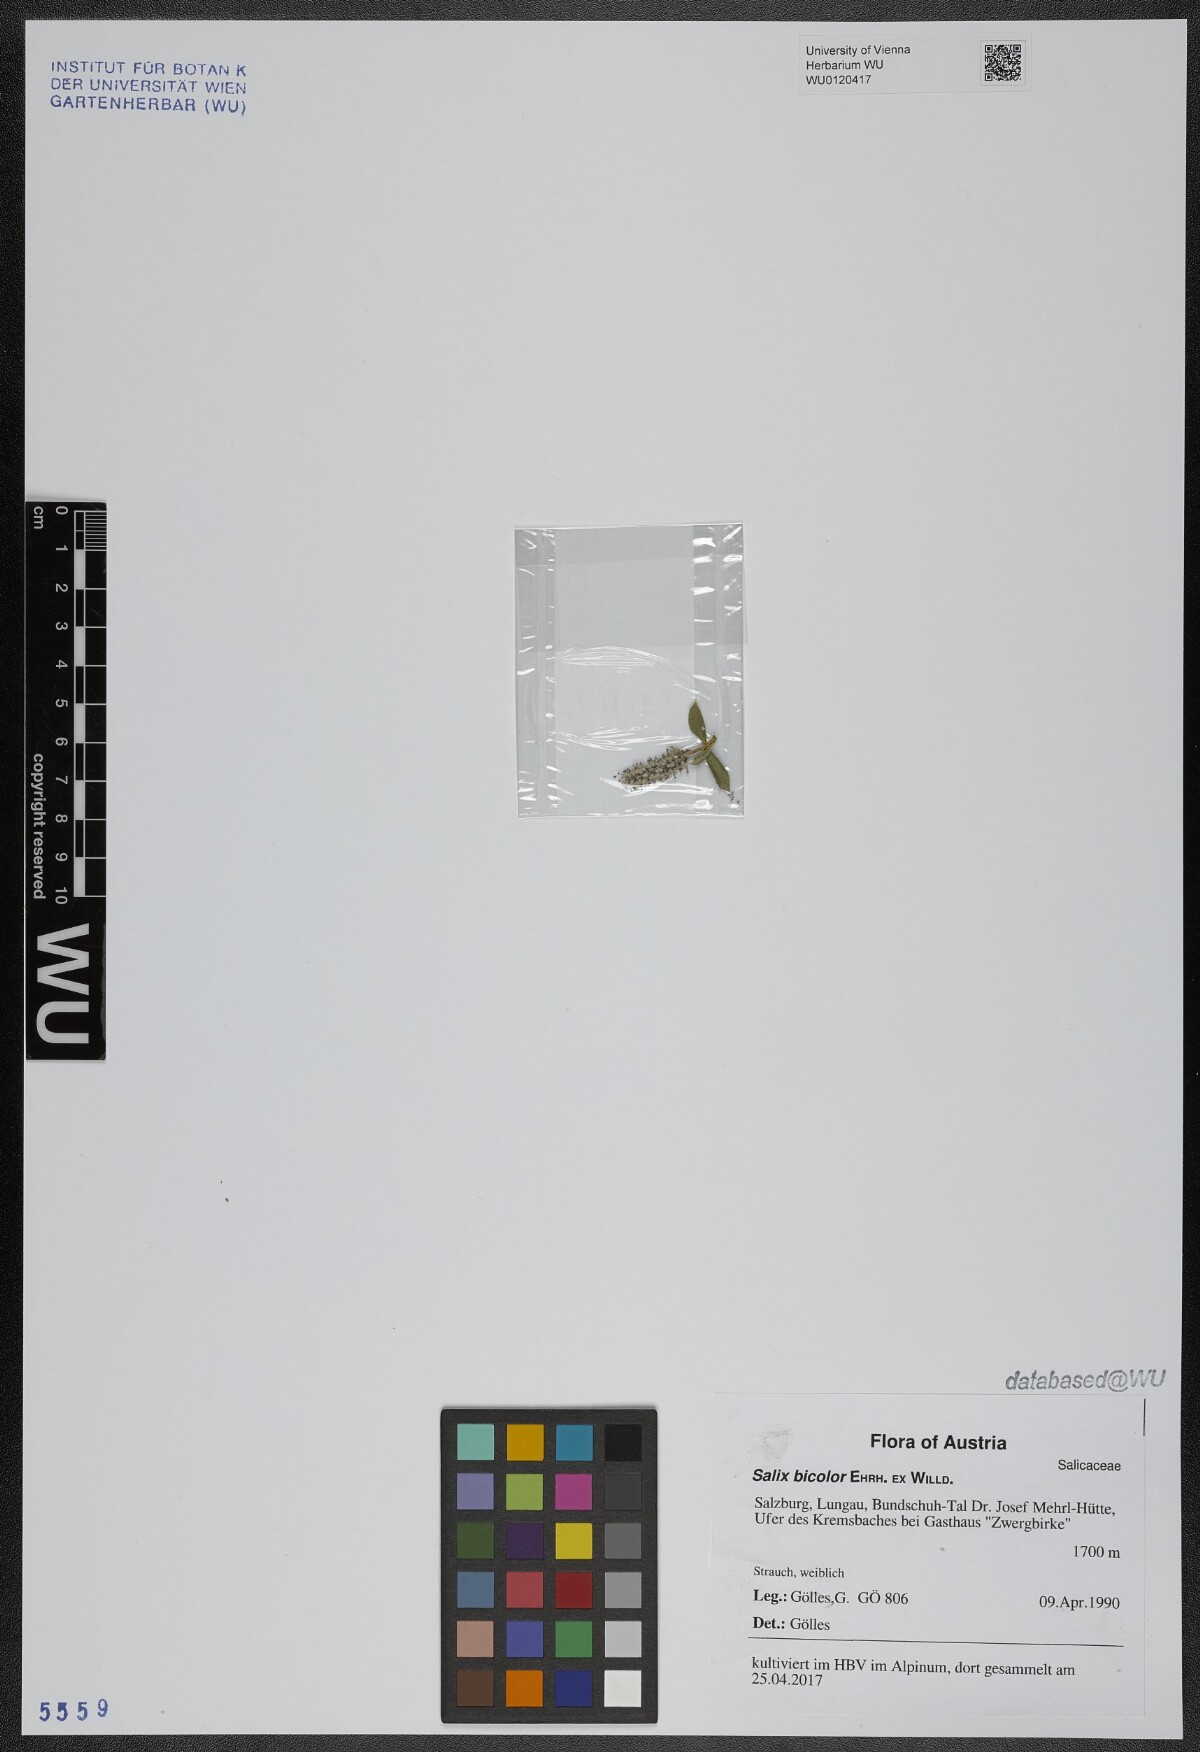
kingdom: Plantae
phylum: Tracheophyta
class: Magnoliopsida
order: Malpighiales
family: Salicaceae
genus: Salix
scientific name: Salix bicolor
